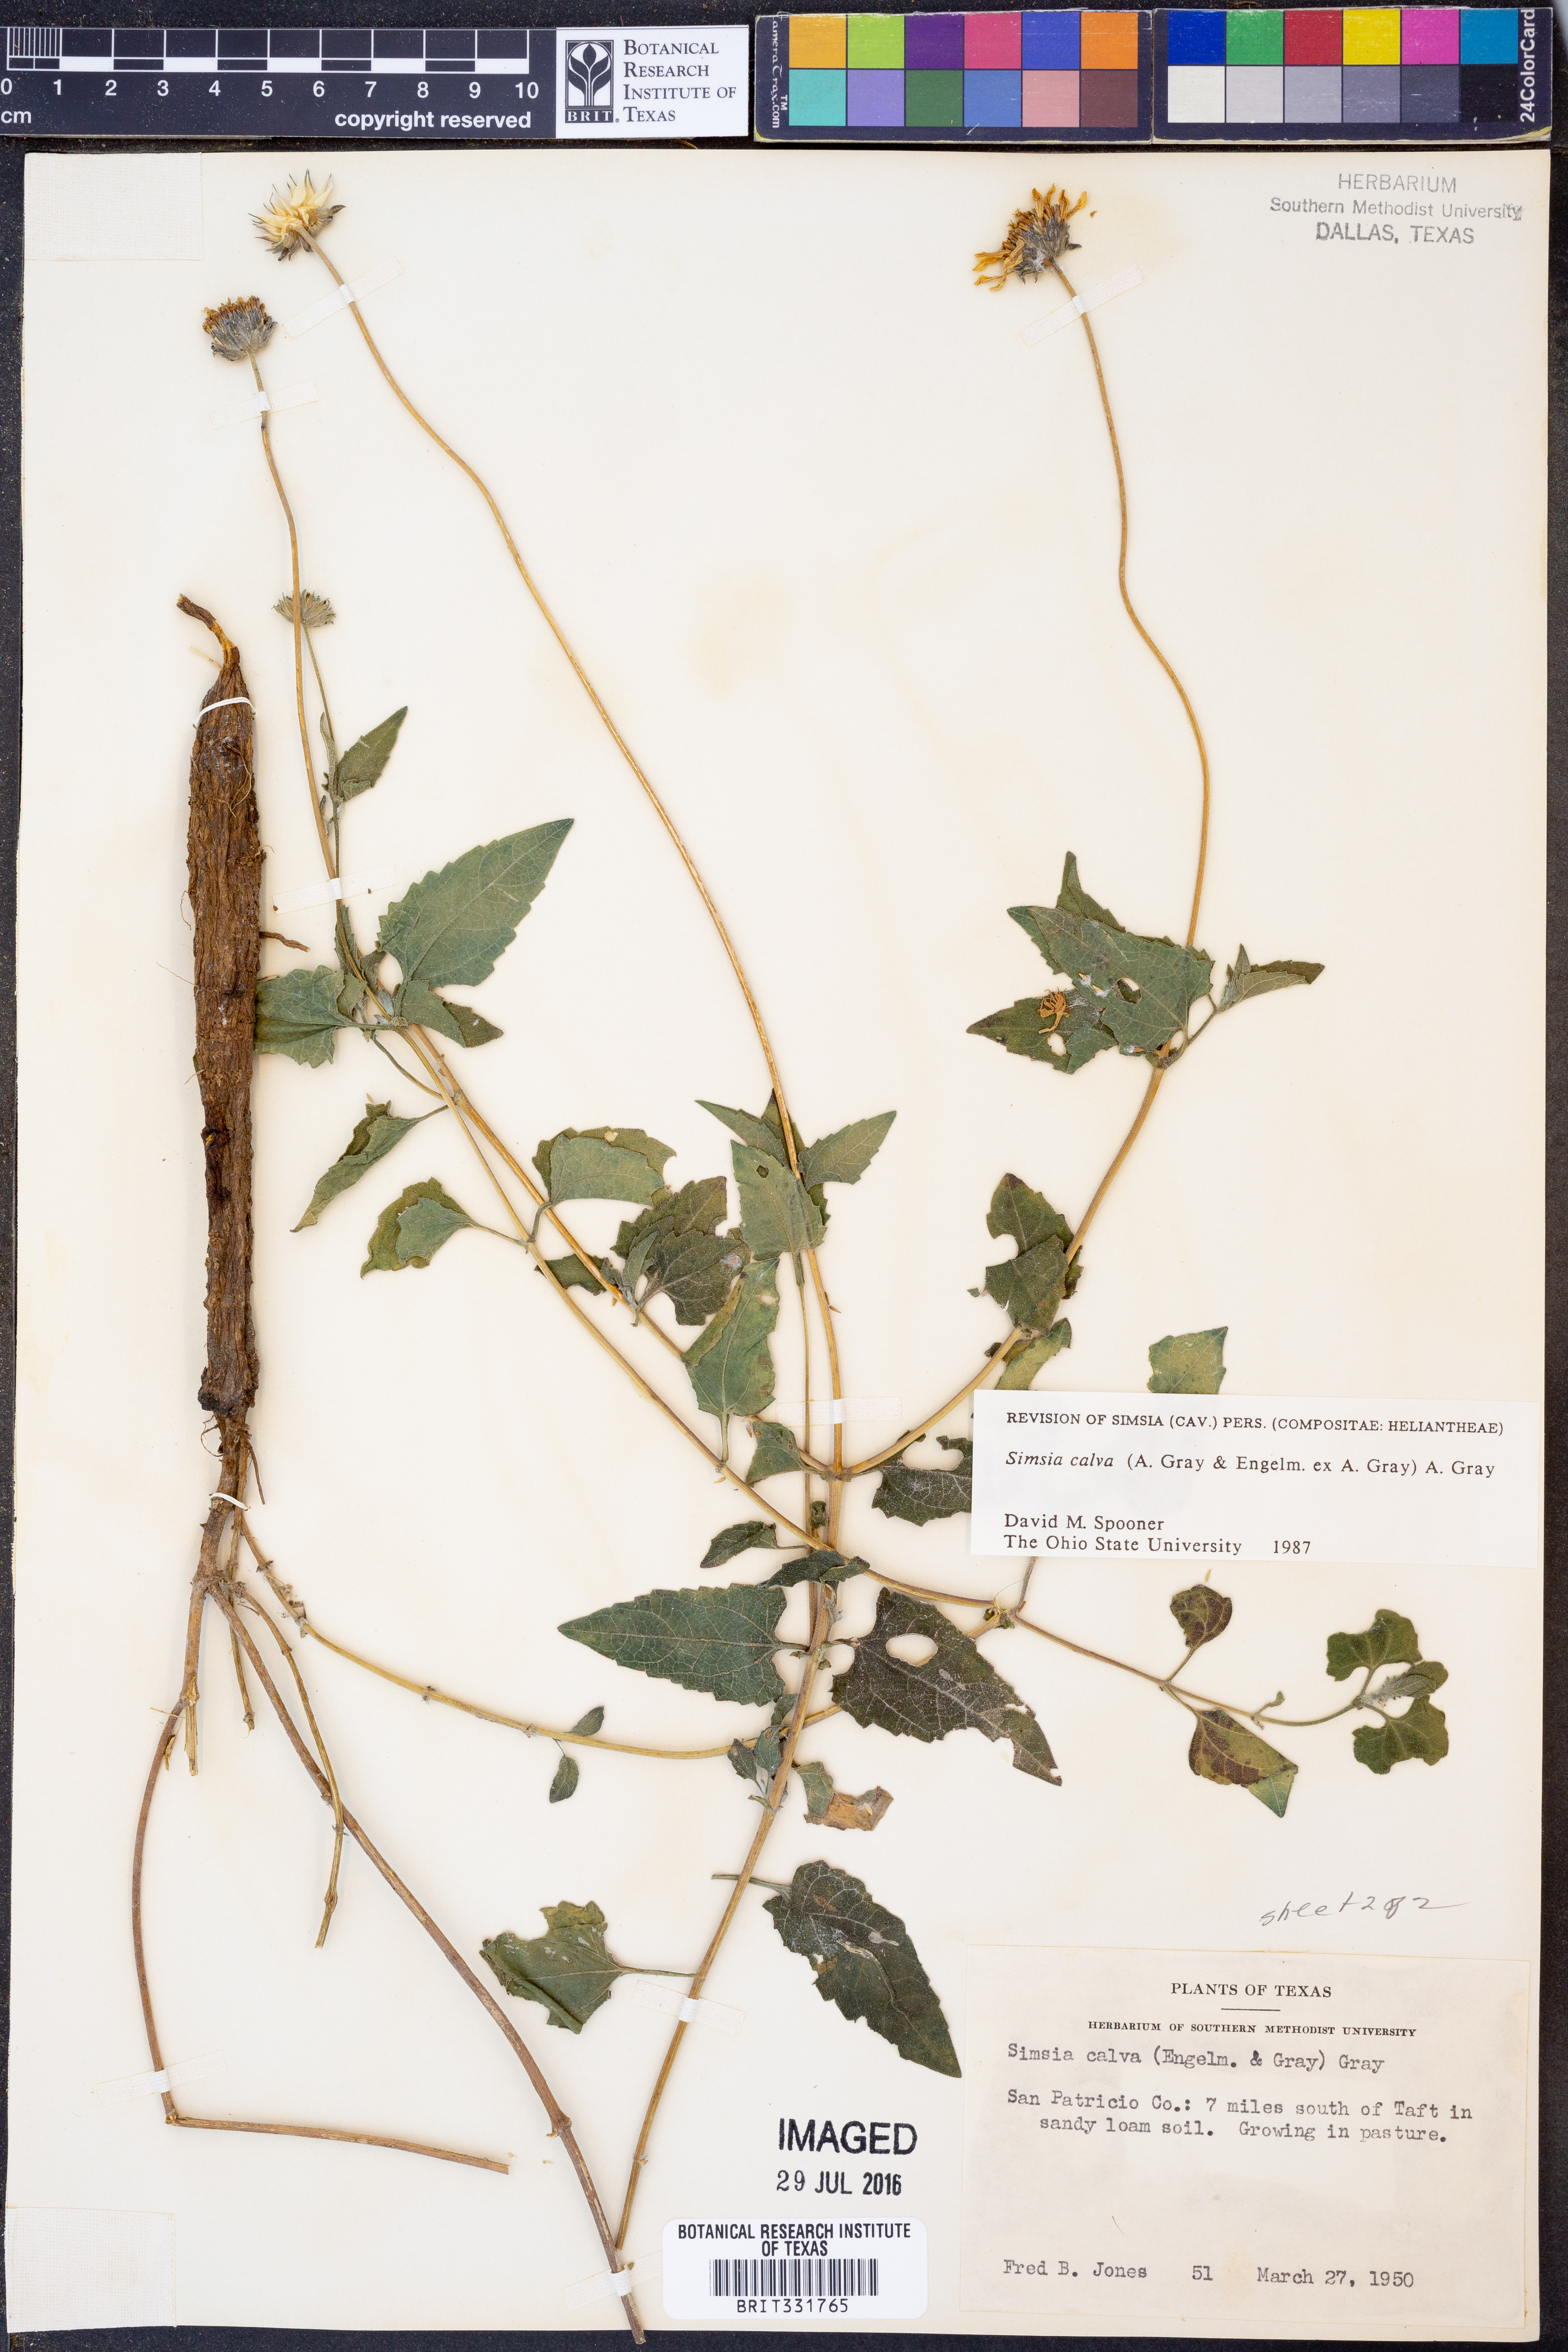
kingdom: Plantae
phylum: Tracheophyta
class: Magnoliopsida
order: Asterales
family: Asteraceae
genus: Simsia
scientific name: Simsia calva
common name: Awnless bush-sunflower
